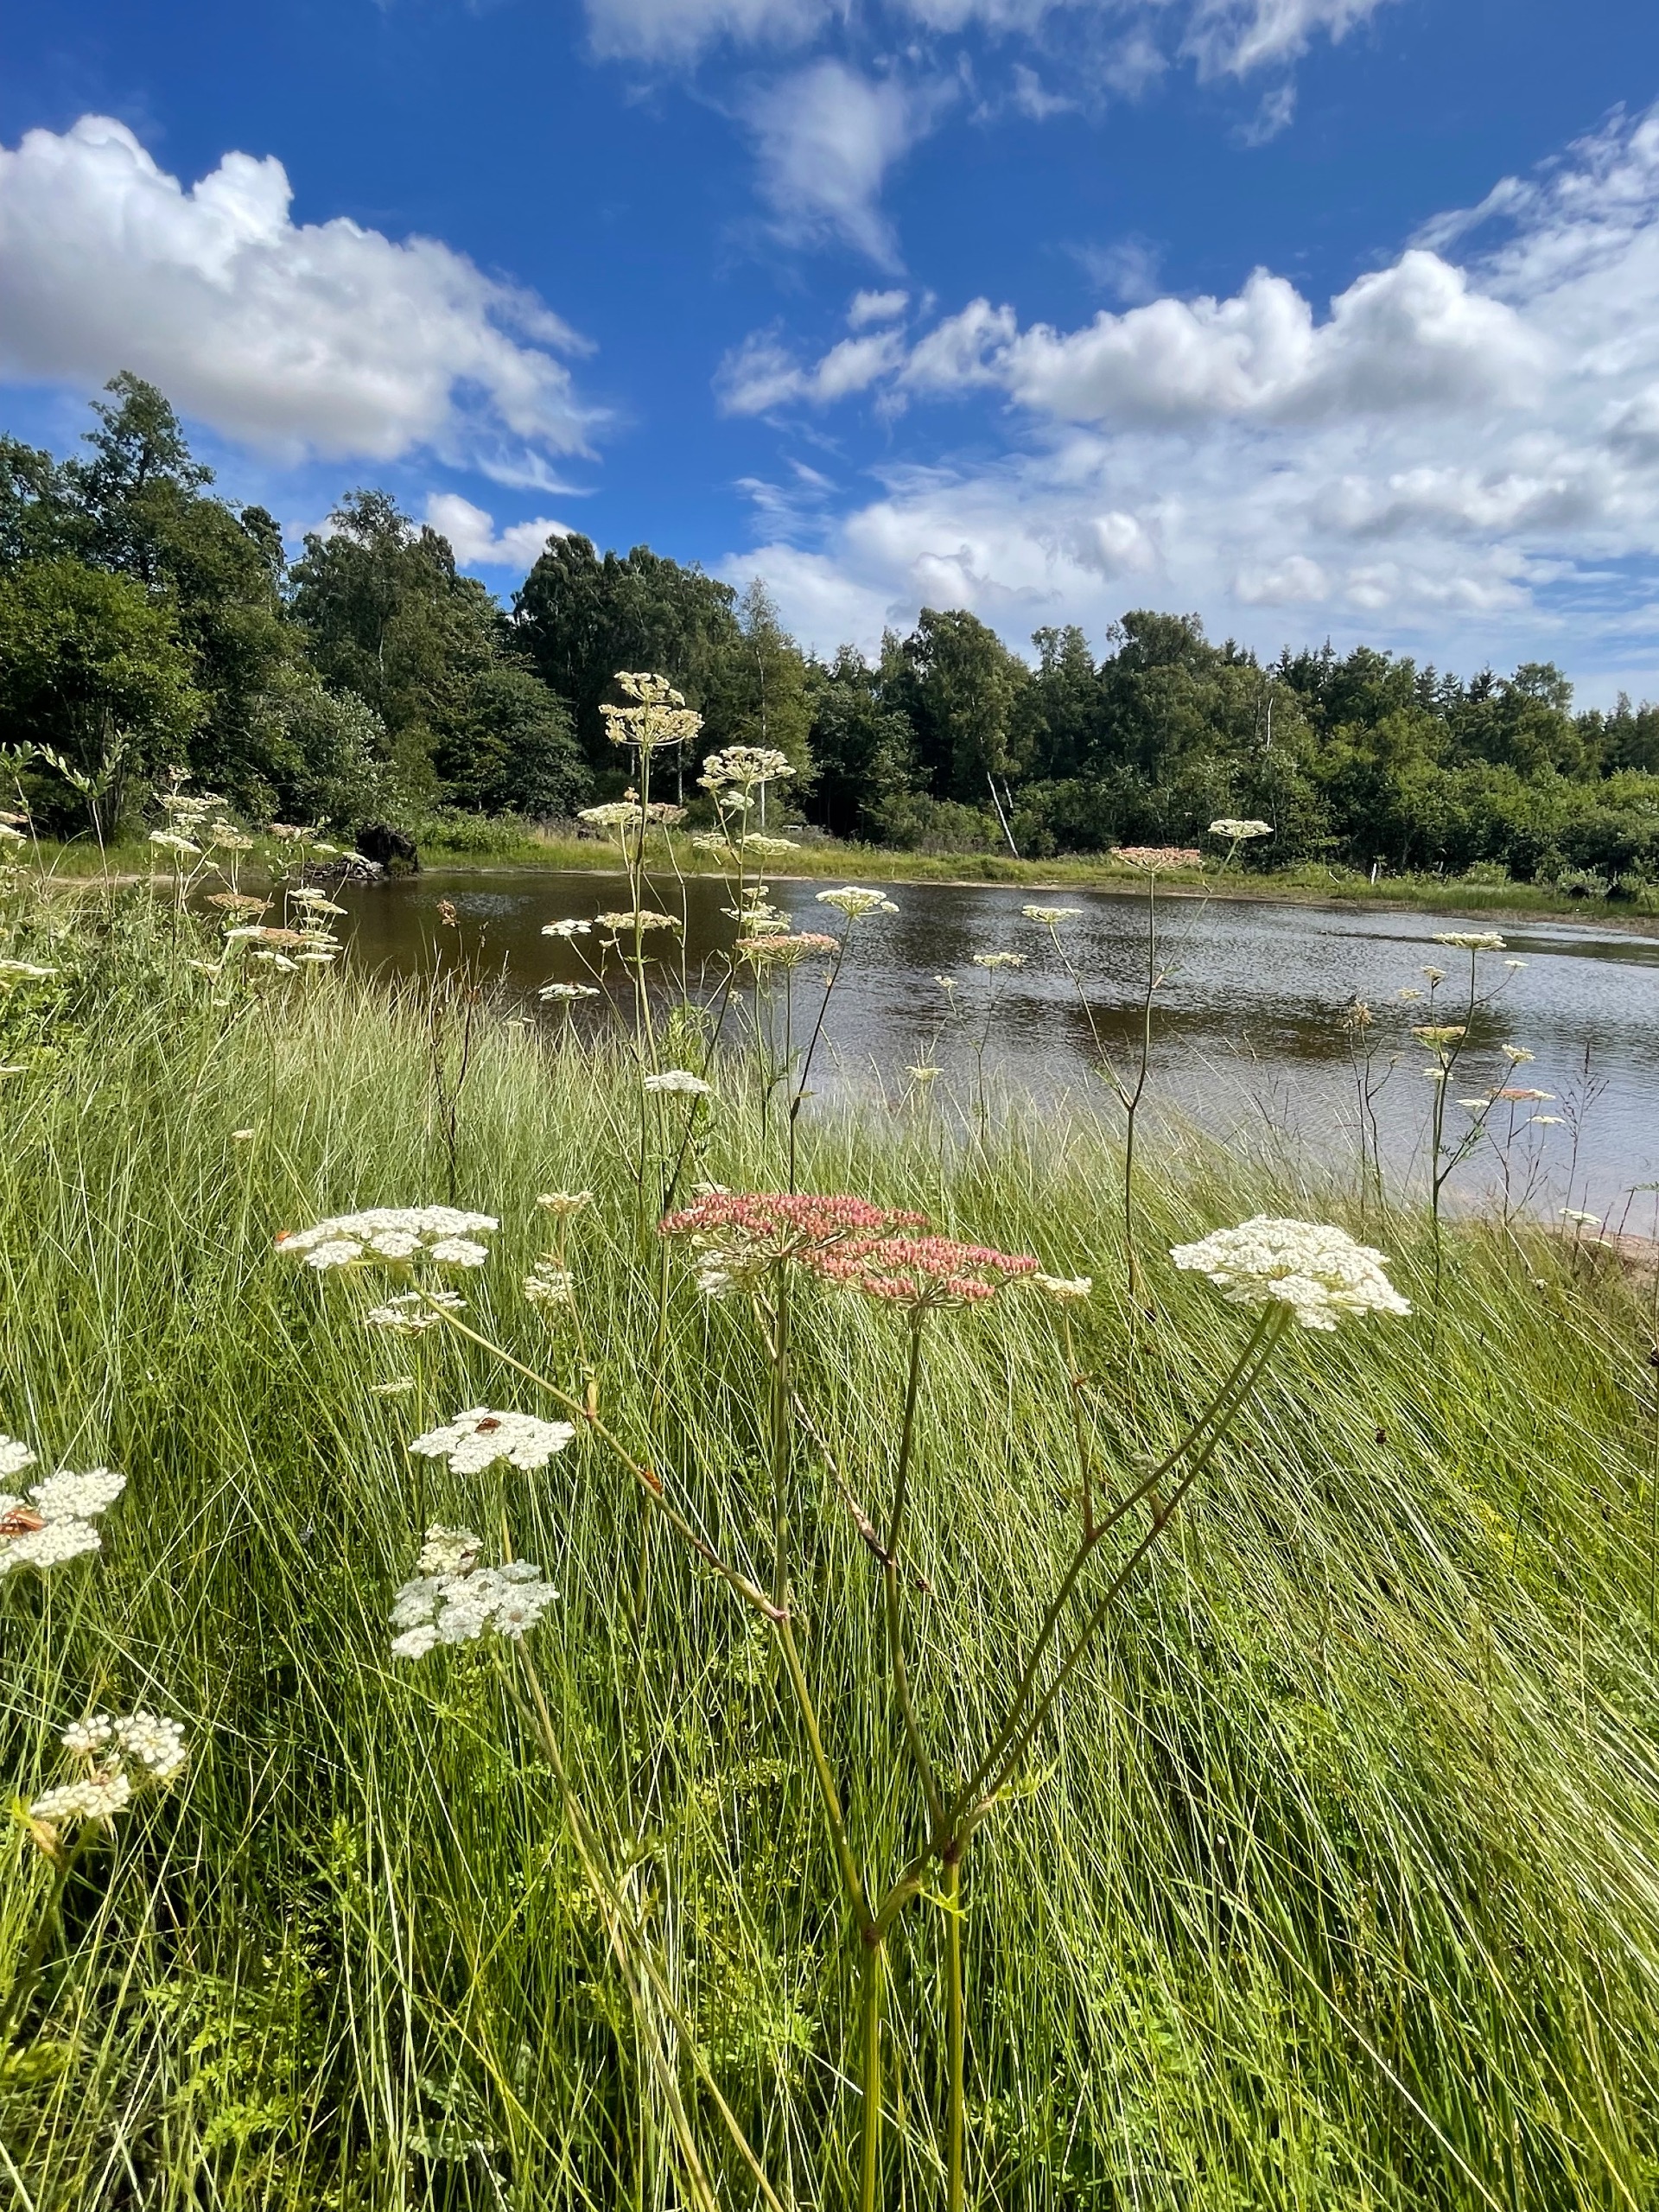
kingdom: Plantae
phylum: Tracheophyta
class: Magnoliopsida
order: Apiales
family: Apiaceae
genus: Thysselinum
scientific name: Thysselinum palustre
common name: Kær-svovlrod
